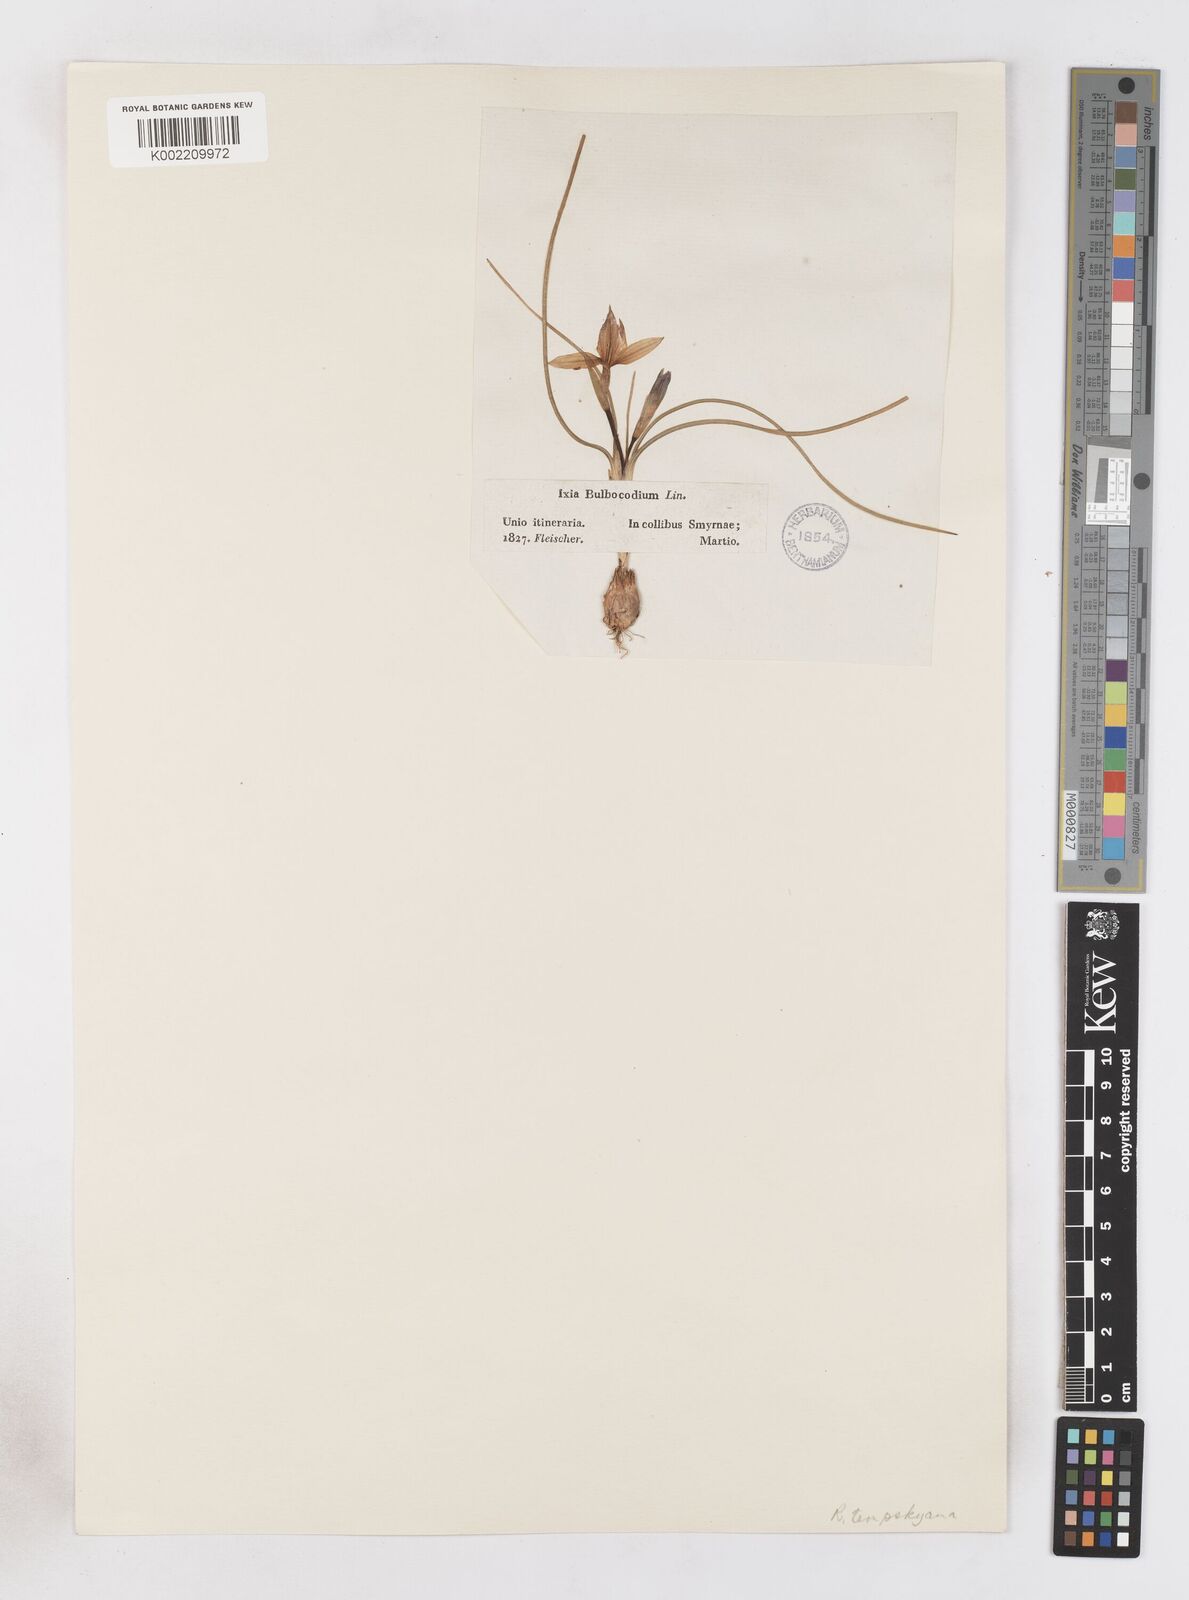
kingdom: Plantae
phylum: Tracheophyta
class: Liliopsida
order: Asparagales
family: Iridaceae
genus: Romulea
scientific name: Romulea tempskyana
